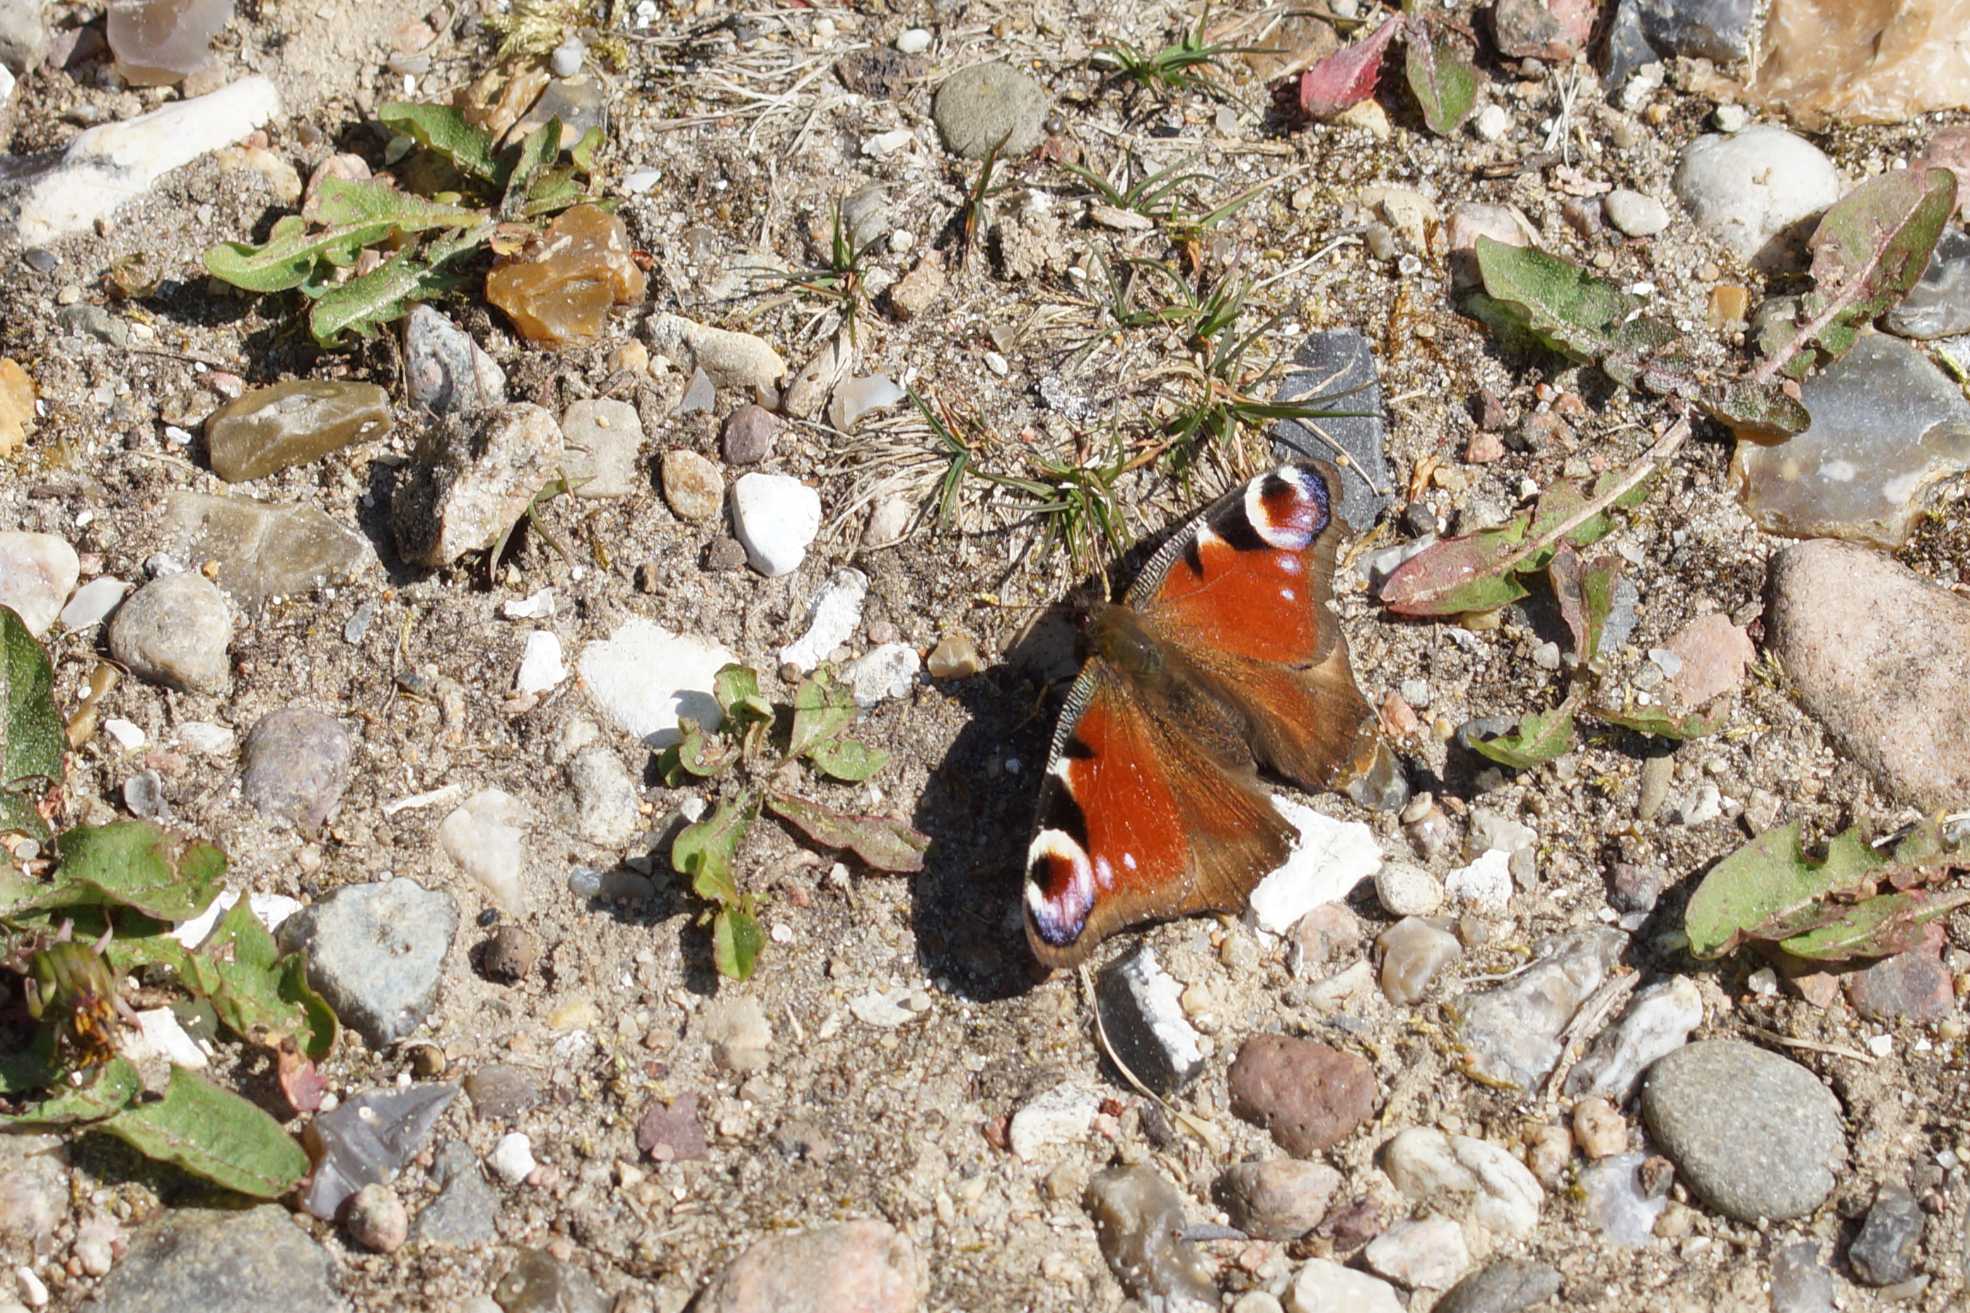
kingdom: Animalia
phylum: Arthropoda
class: Insecta
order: Lepidoptera
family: Nymphalidae
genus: Aglais
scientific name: Aglais io
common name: Dagpåfugleøje
